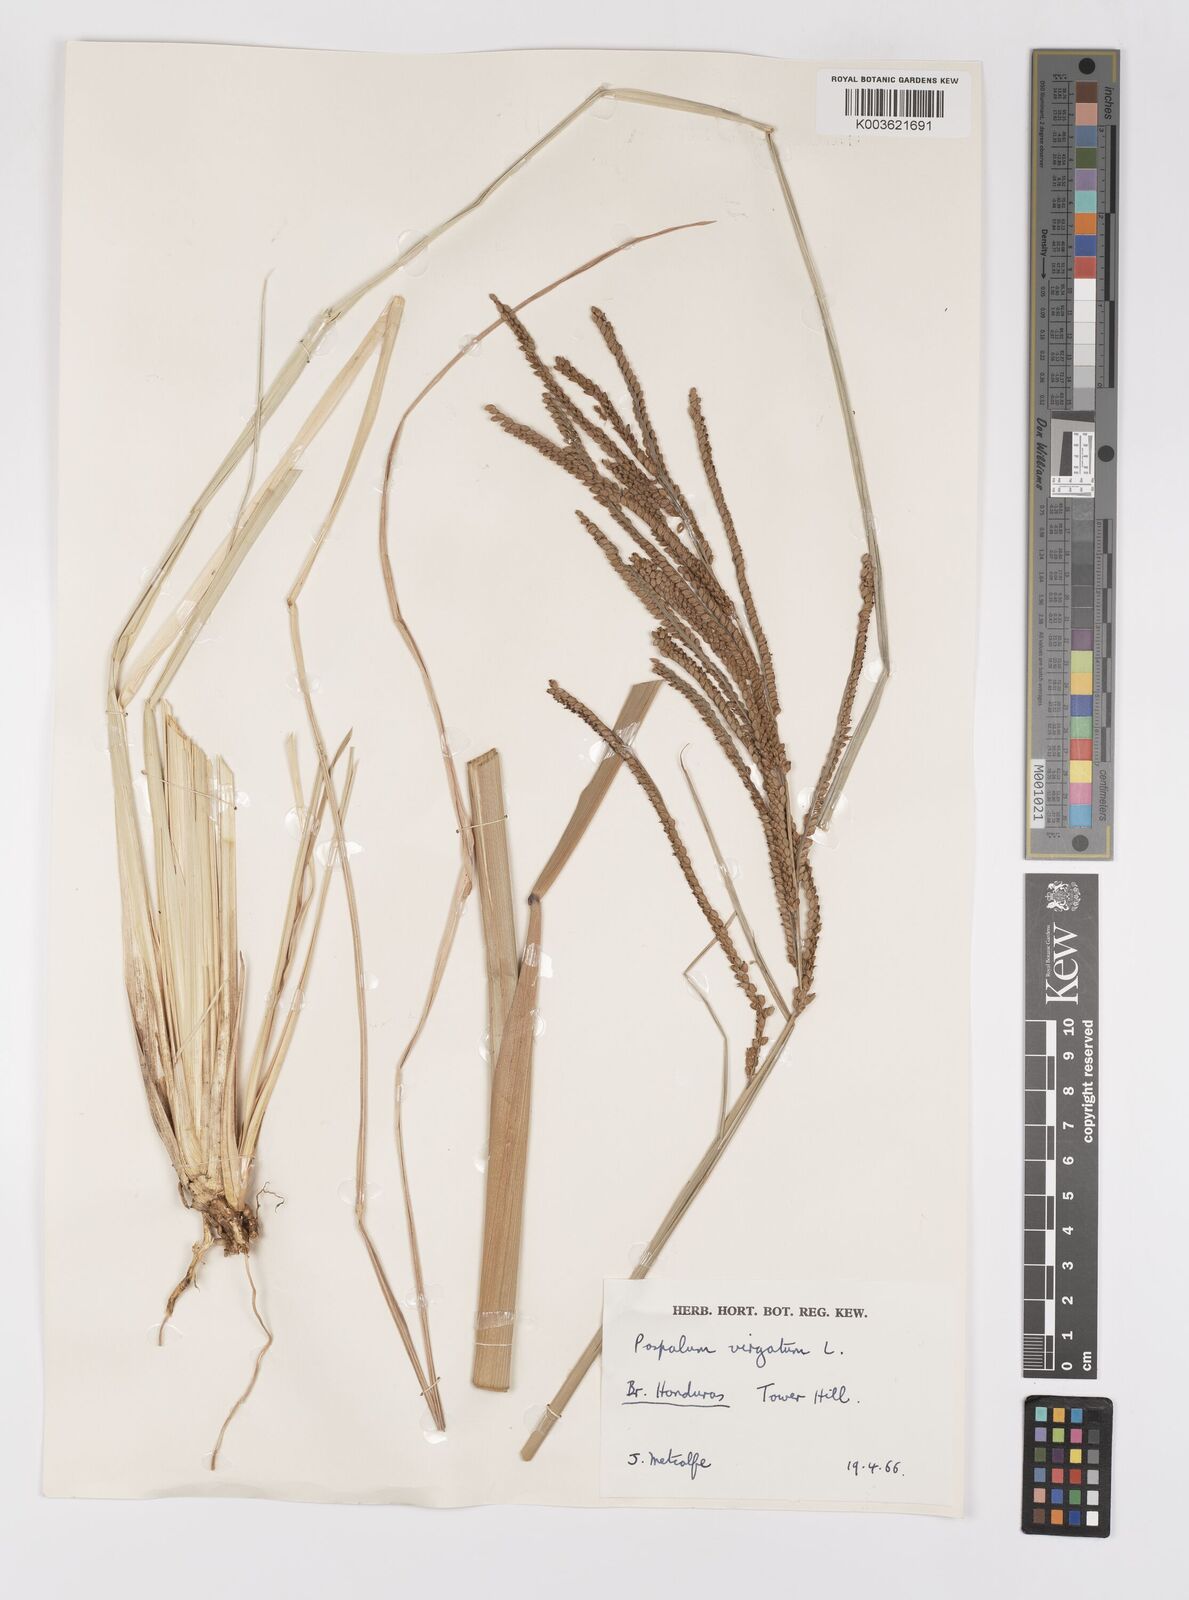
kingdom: Plantae
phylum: Tracheophyta
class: Liliopsida
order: Poales
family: Poaceae
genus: Paspalum
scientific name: Paspalum virgatum
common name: Talquezal
